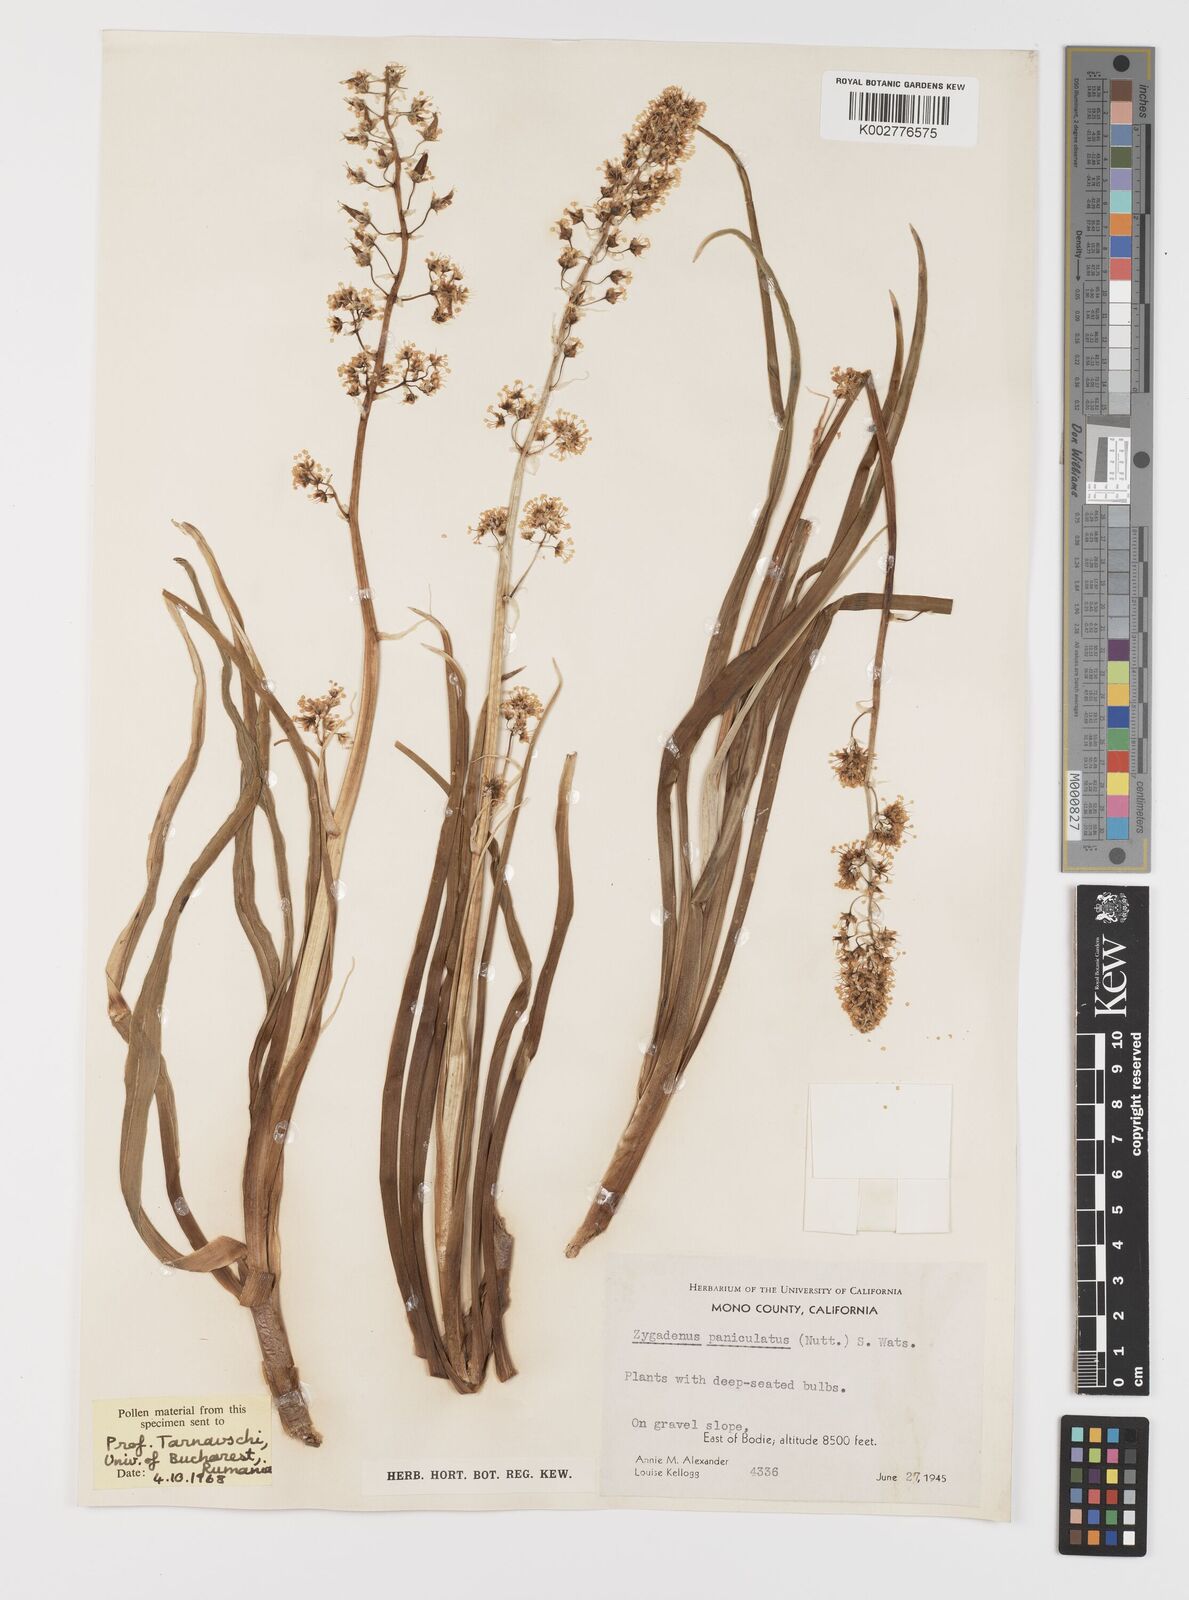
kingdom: Plantae
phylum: Tracheophyta
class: Liliopsida
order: Liliales
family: Melanthiaceae
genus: Toxicoscordion
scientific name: Toxicoscordion paniculatum
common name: Foothill death camas
